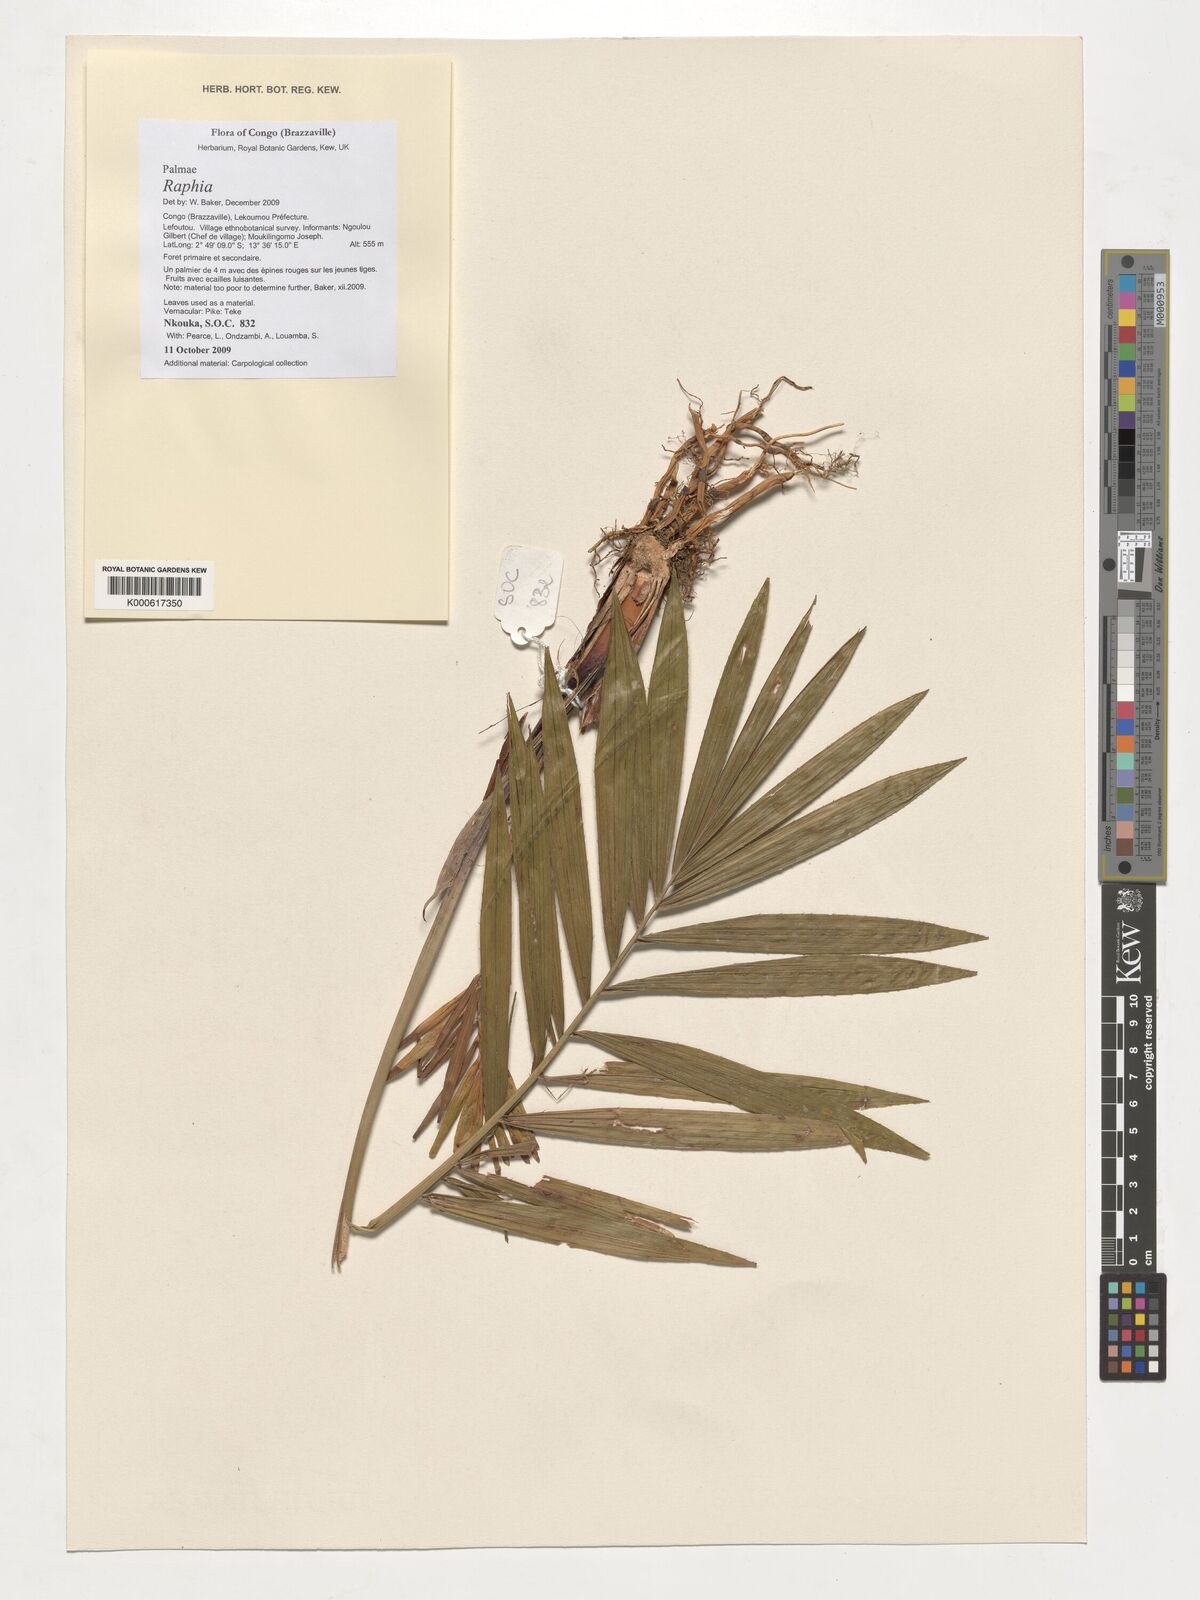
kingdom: Plantae
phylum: Tracheophyta
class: Liliopsida
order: Arecales
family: Arecaceae
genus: Raphia
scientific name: Raphia
